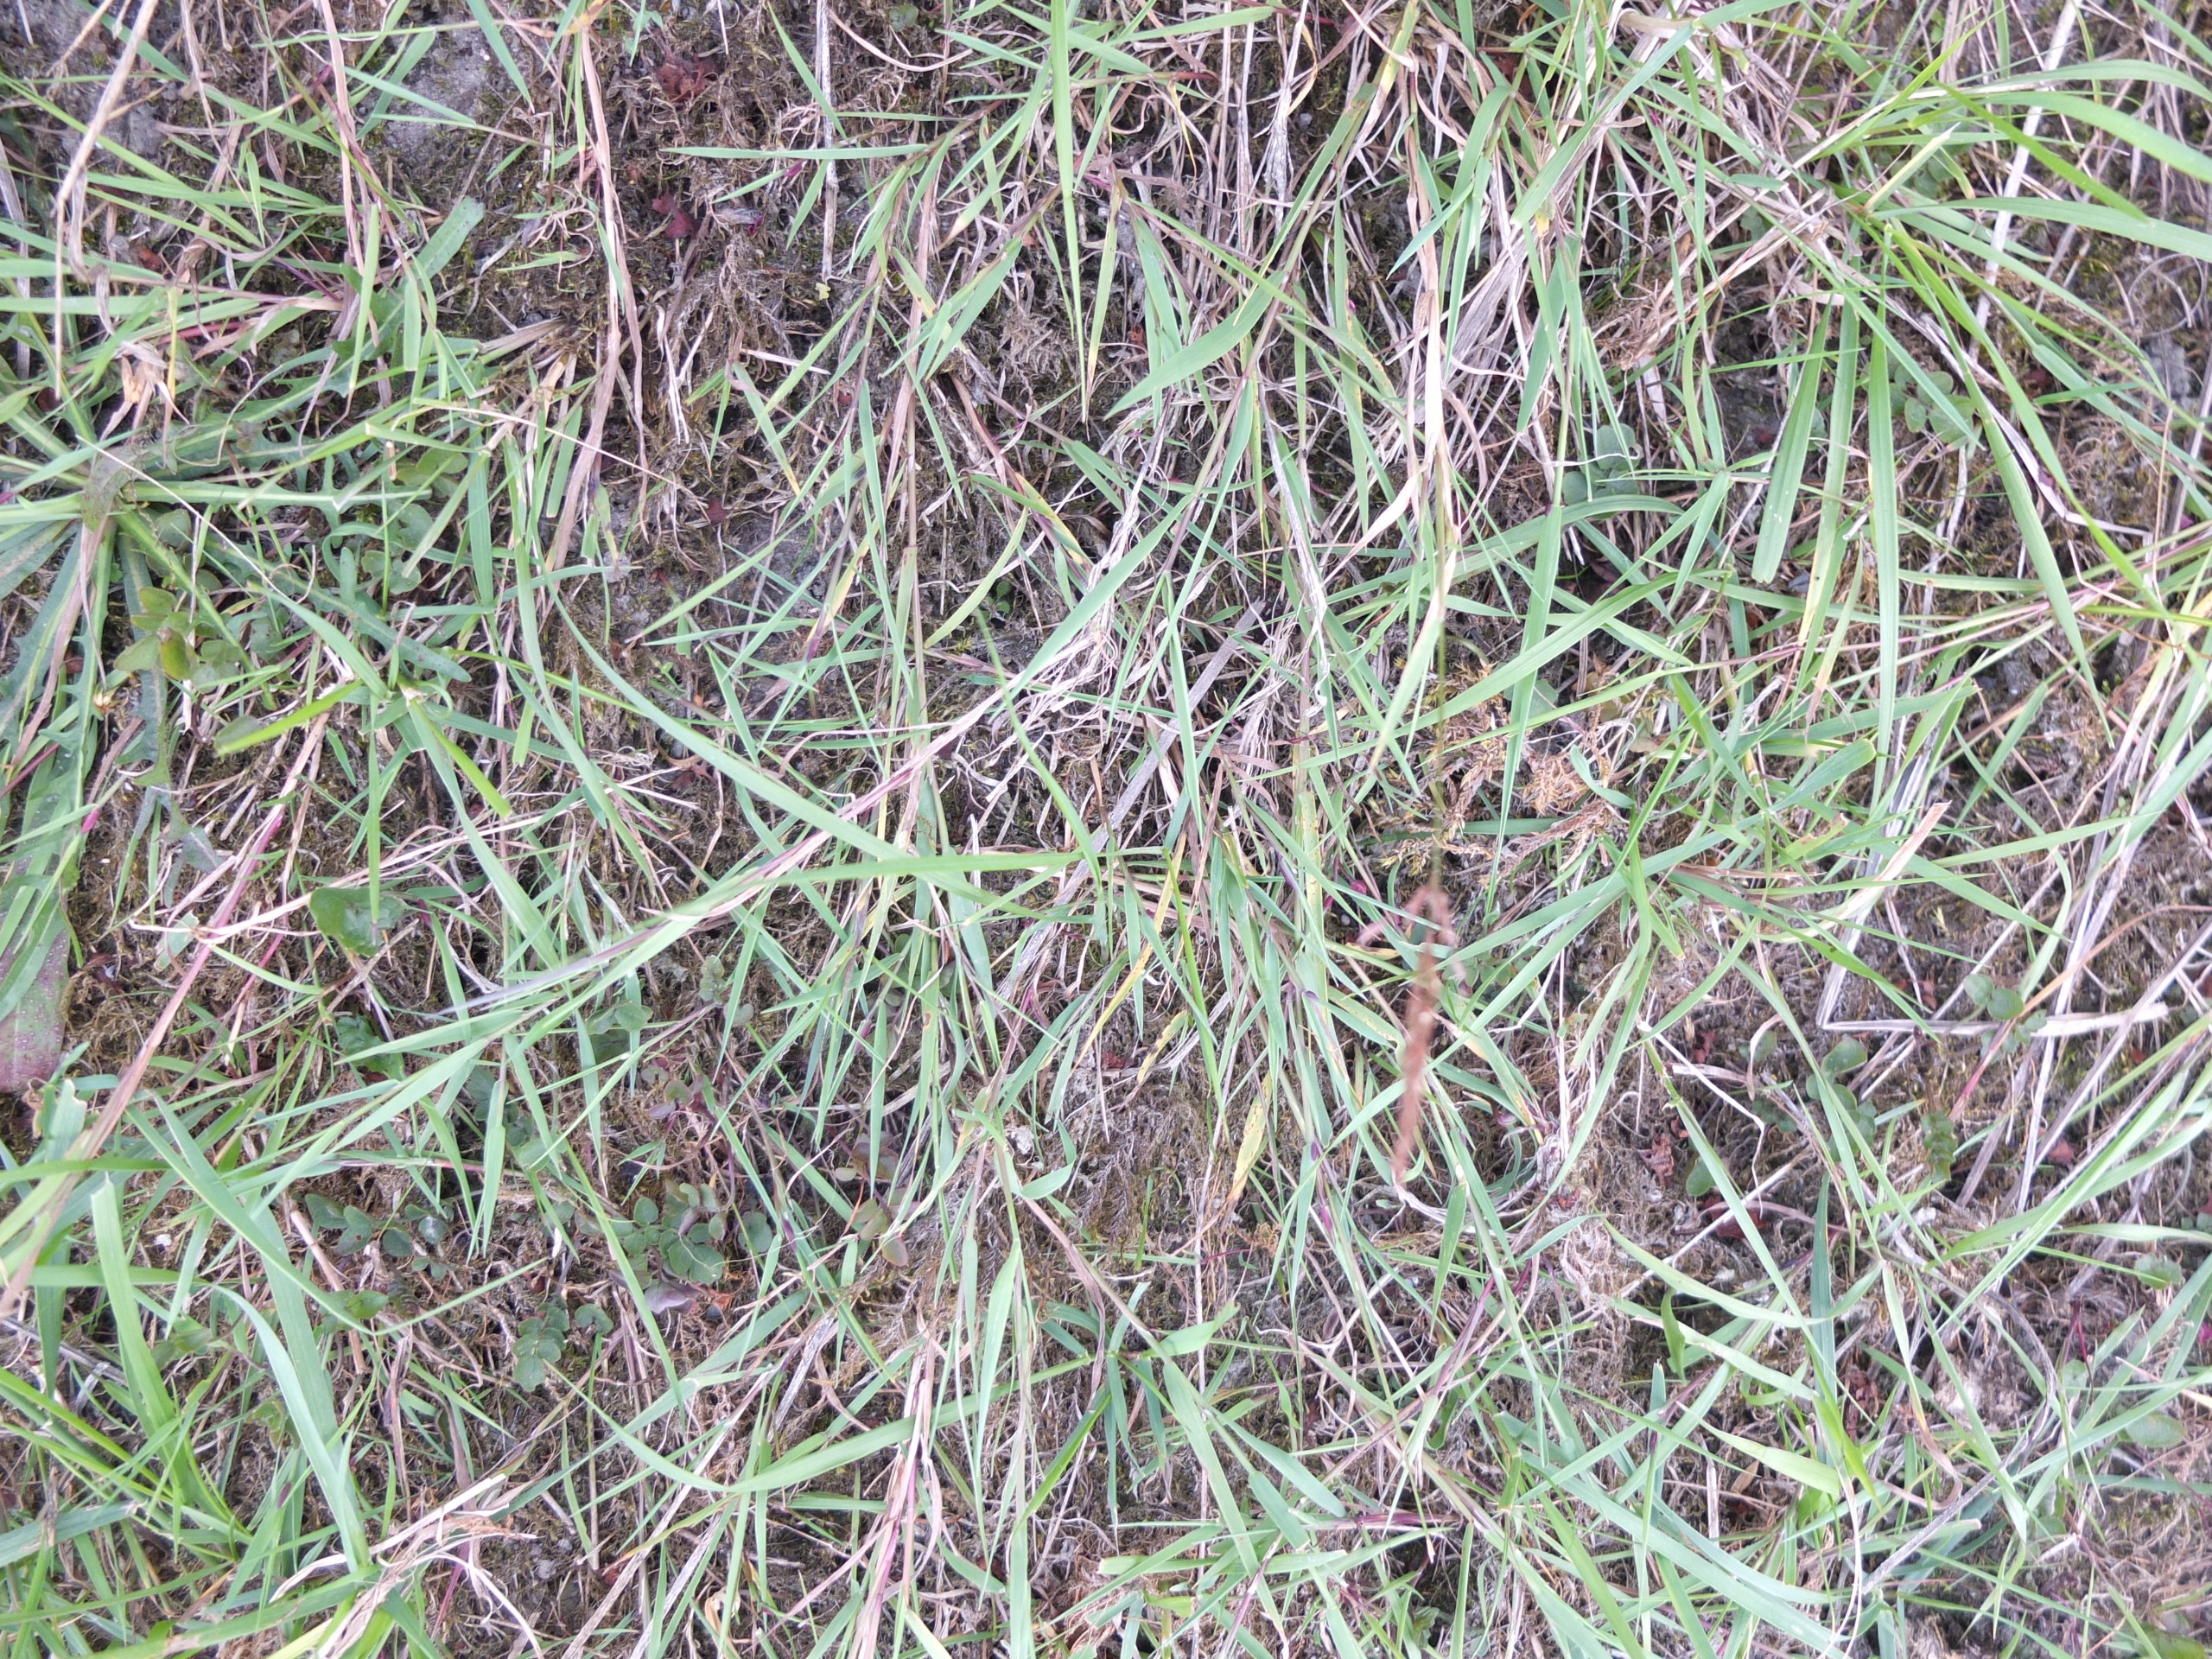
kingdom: Plantae
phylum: Tracheophyta
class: Liliopsida
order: Poales
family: Poaceae
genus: Agrostis
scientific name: Agrostis stolonifera
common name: Kryb-hvene
